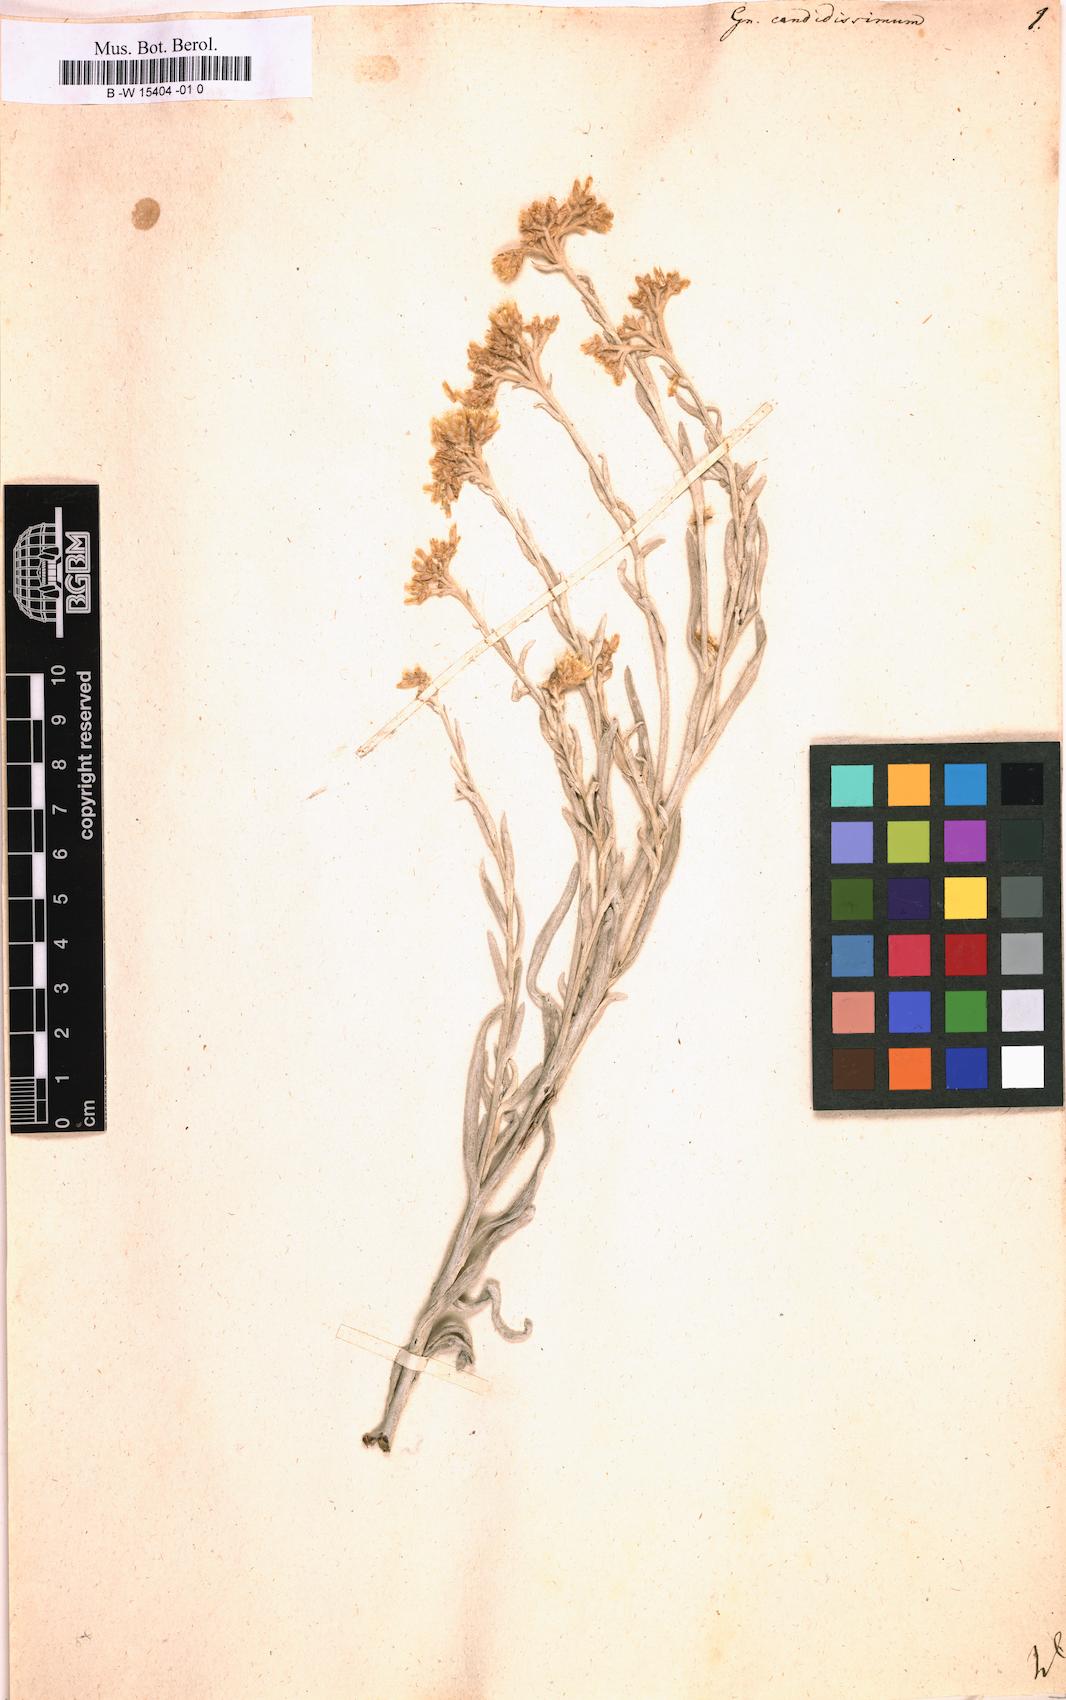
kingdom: Plantae
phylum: Tracheophyta
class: Magnoliopsida
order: Asterales
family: Asteraceae
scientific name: Asteraceae
